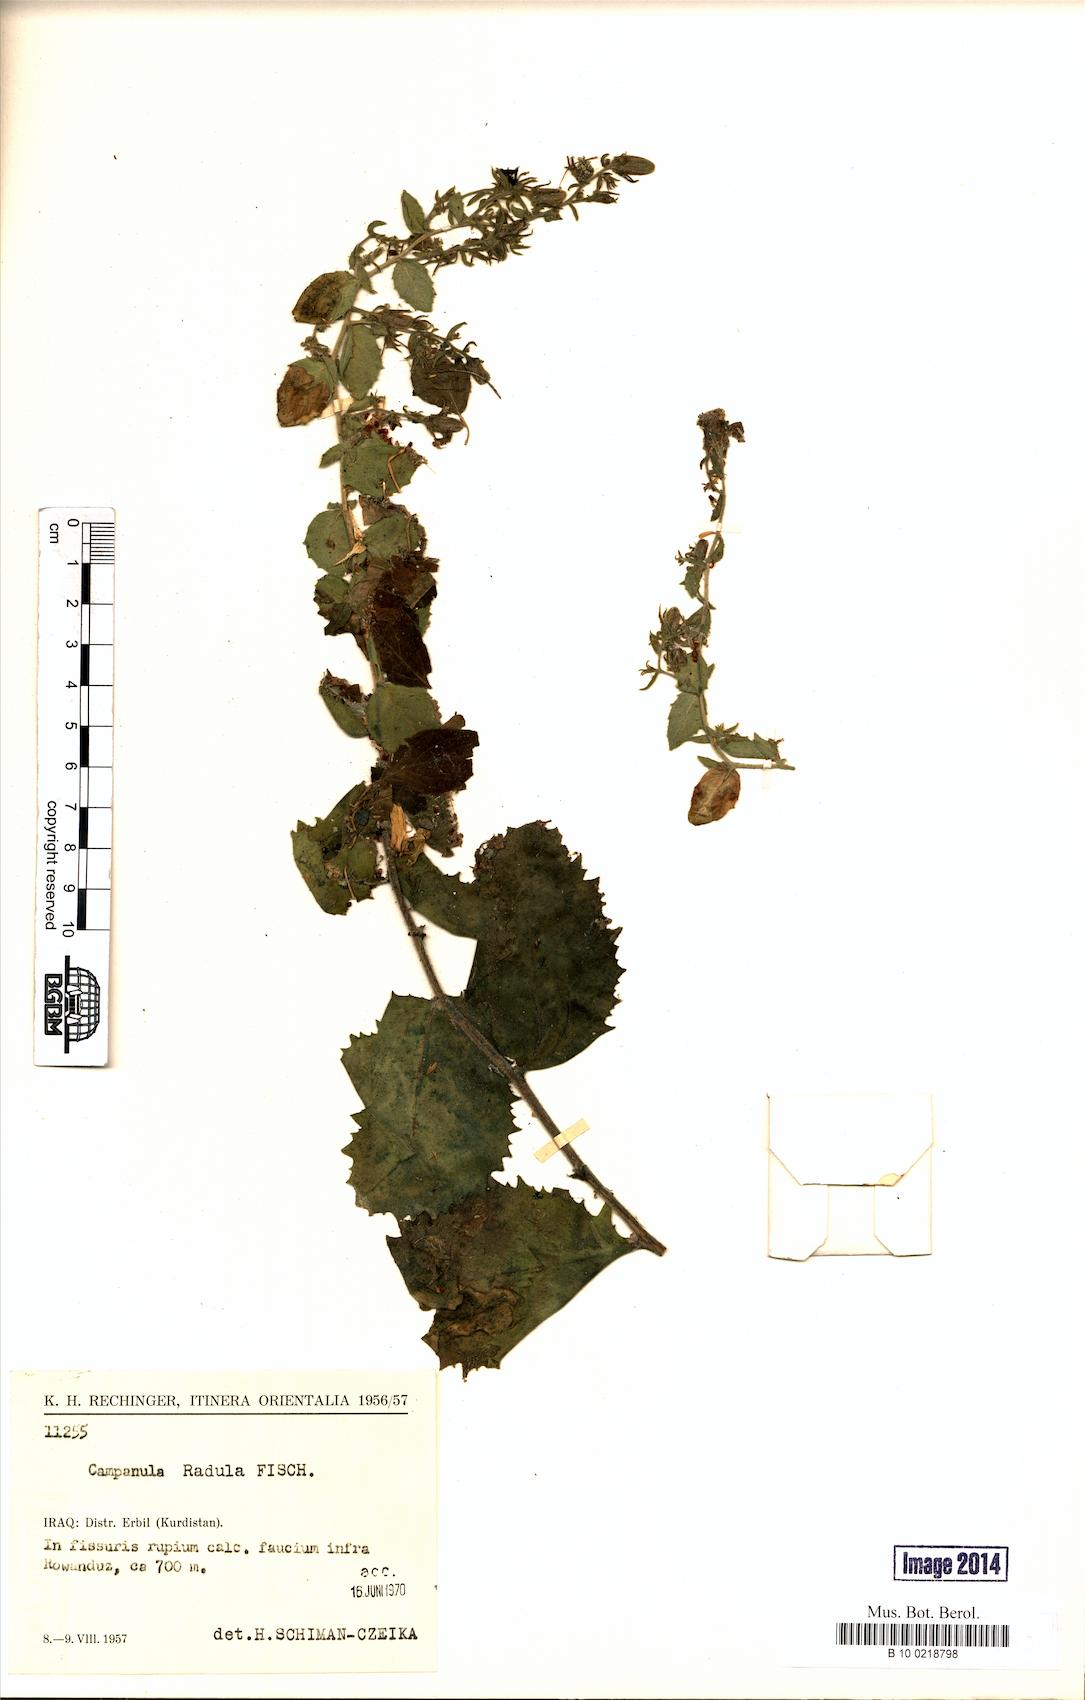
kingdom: Plantae
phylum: Tracheophyta
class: Magnoliopsida
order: Asterales
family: Campanulaceae
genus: Campanula
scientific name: Campanula radula
